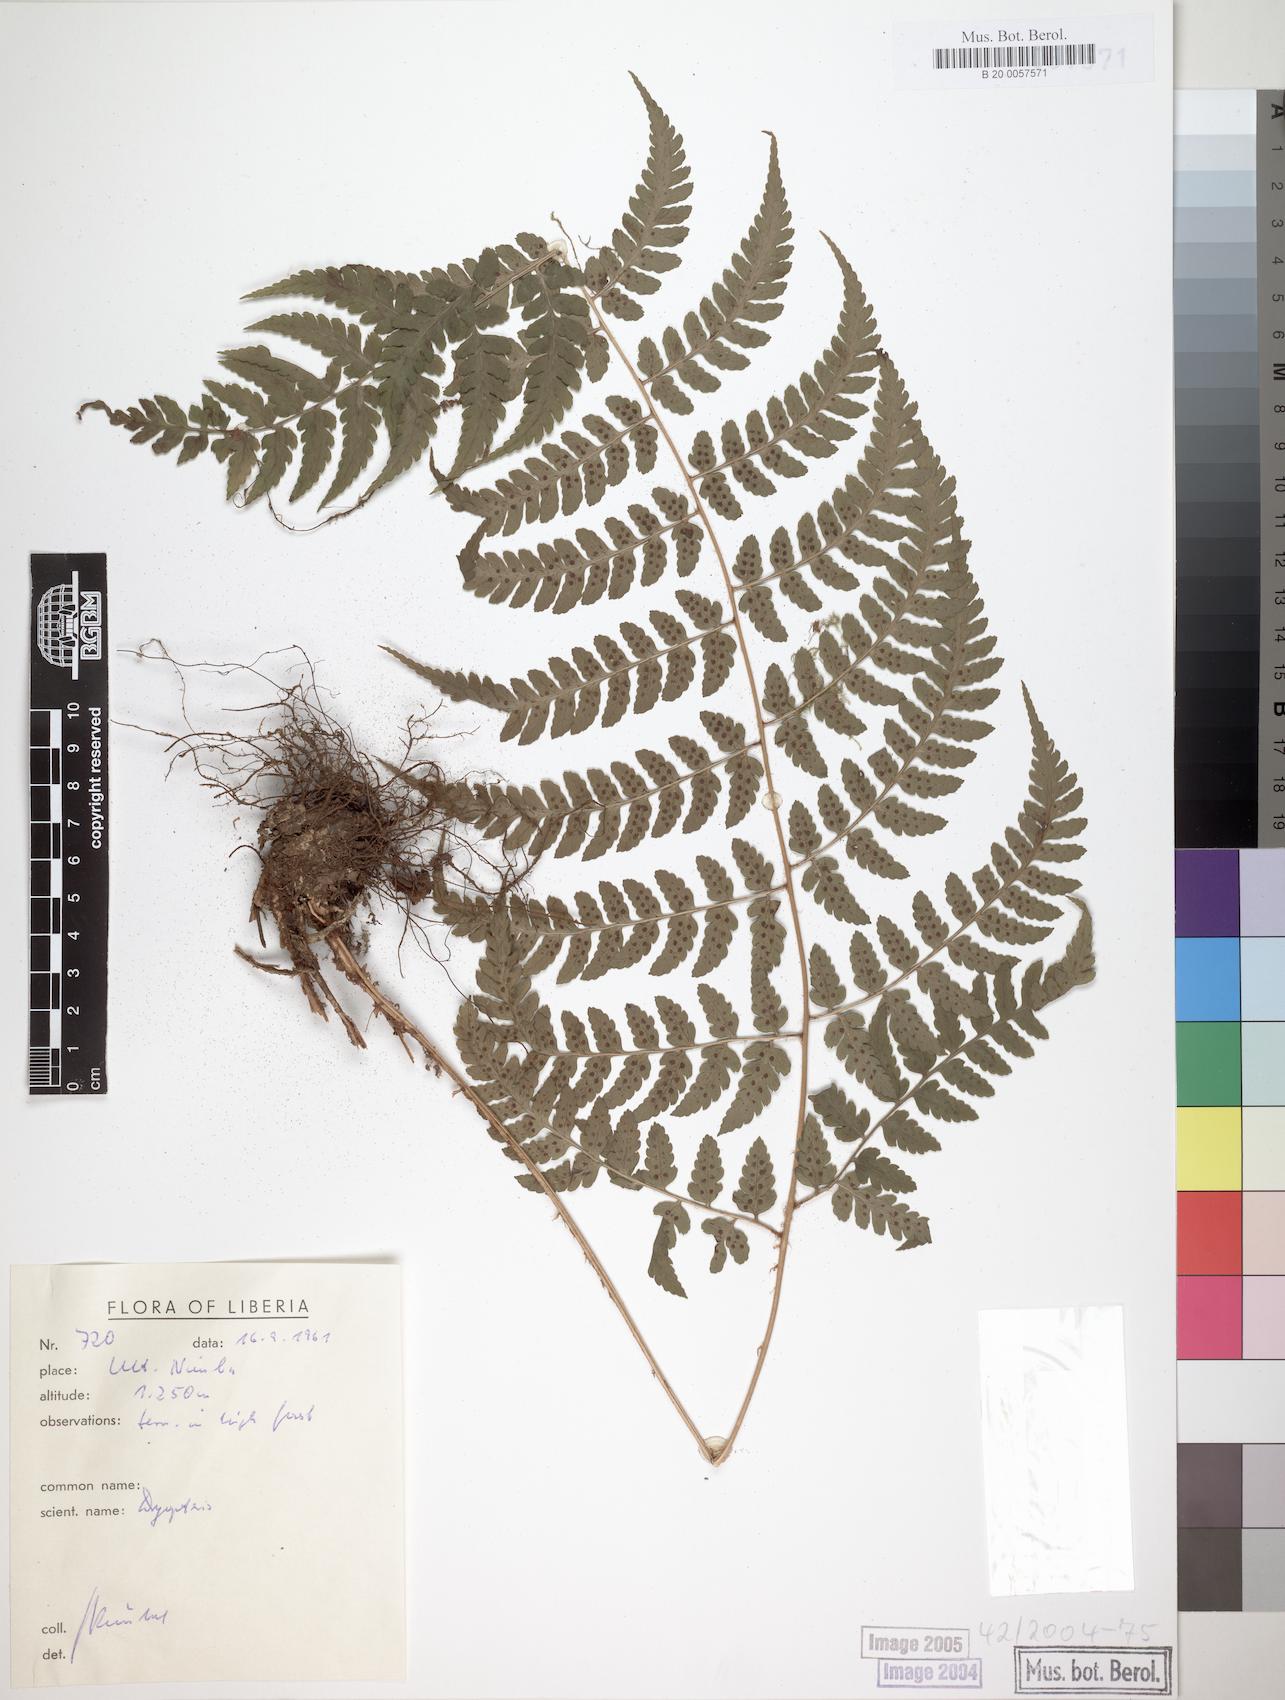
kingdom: Plantae
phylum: Tracheophyta
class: Polypodiopsida
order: Polypodiales
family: Dryopteridaceae
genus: Dryopteris
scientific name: Dryopteris manniana
